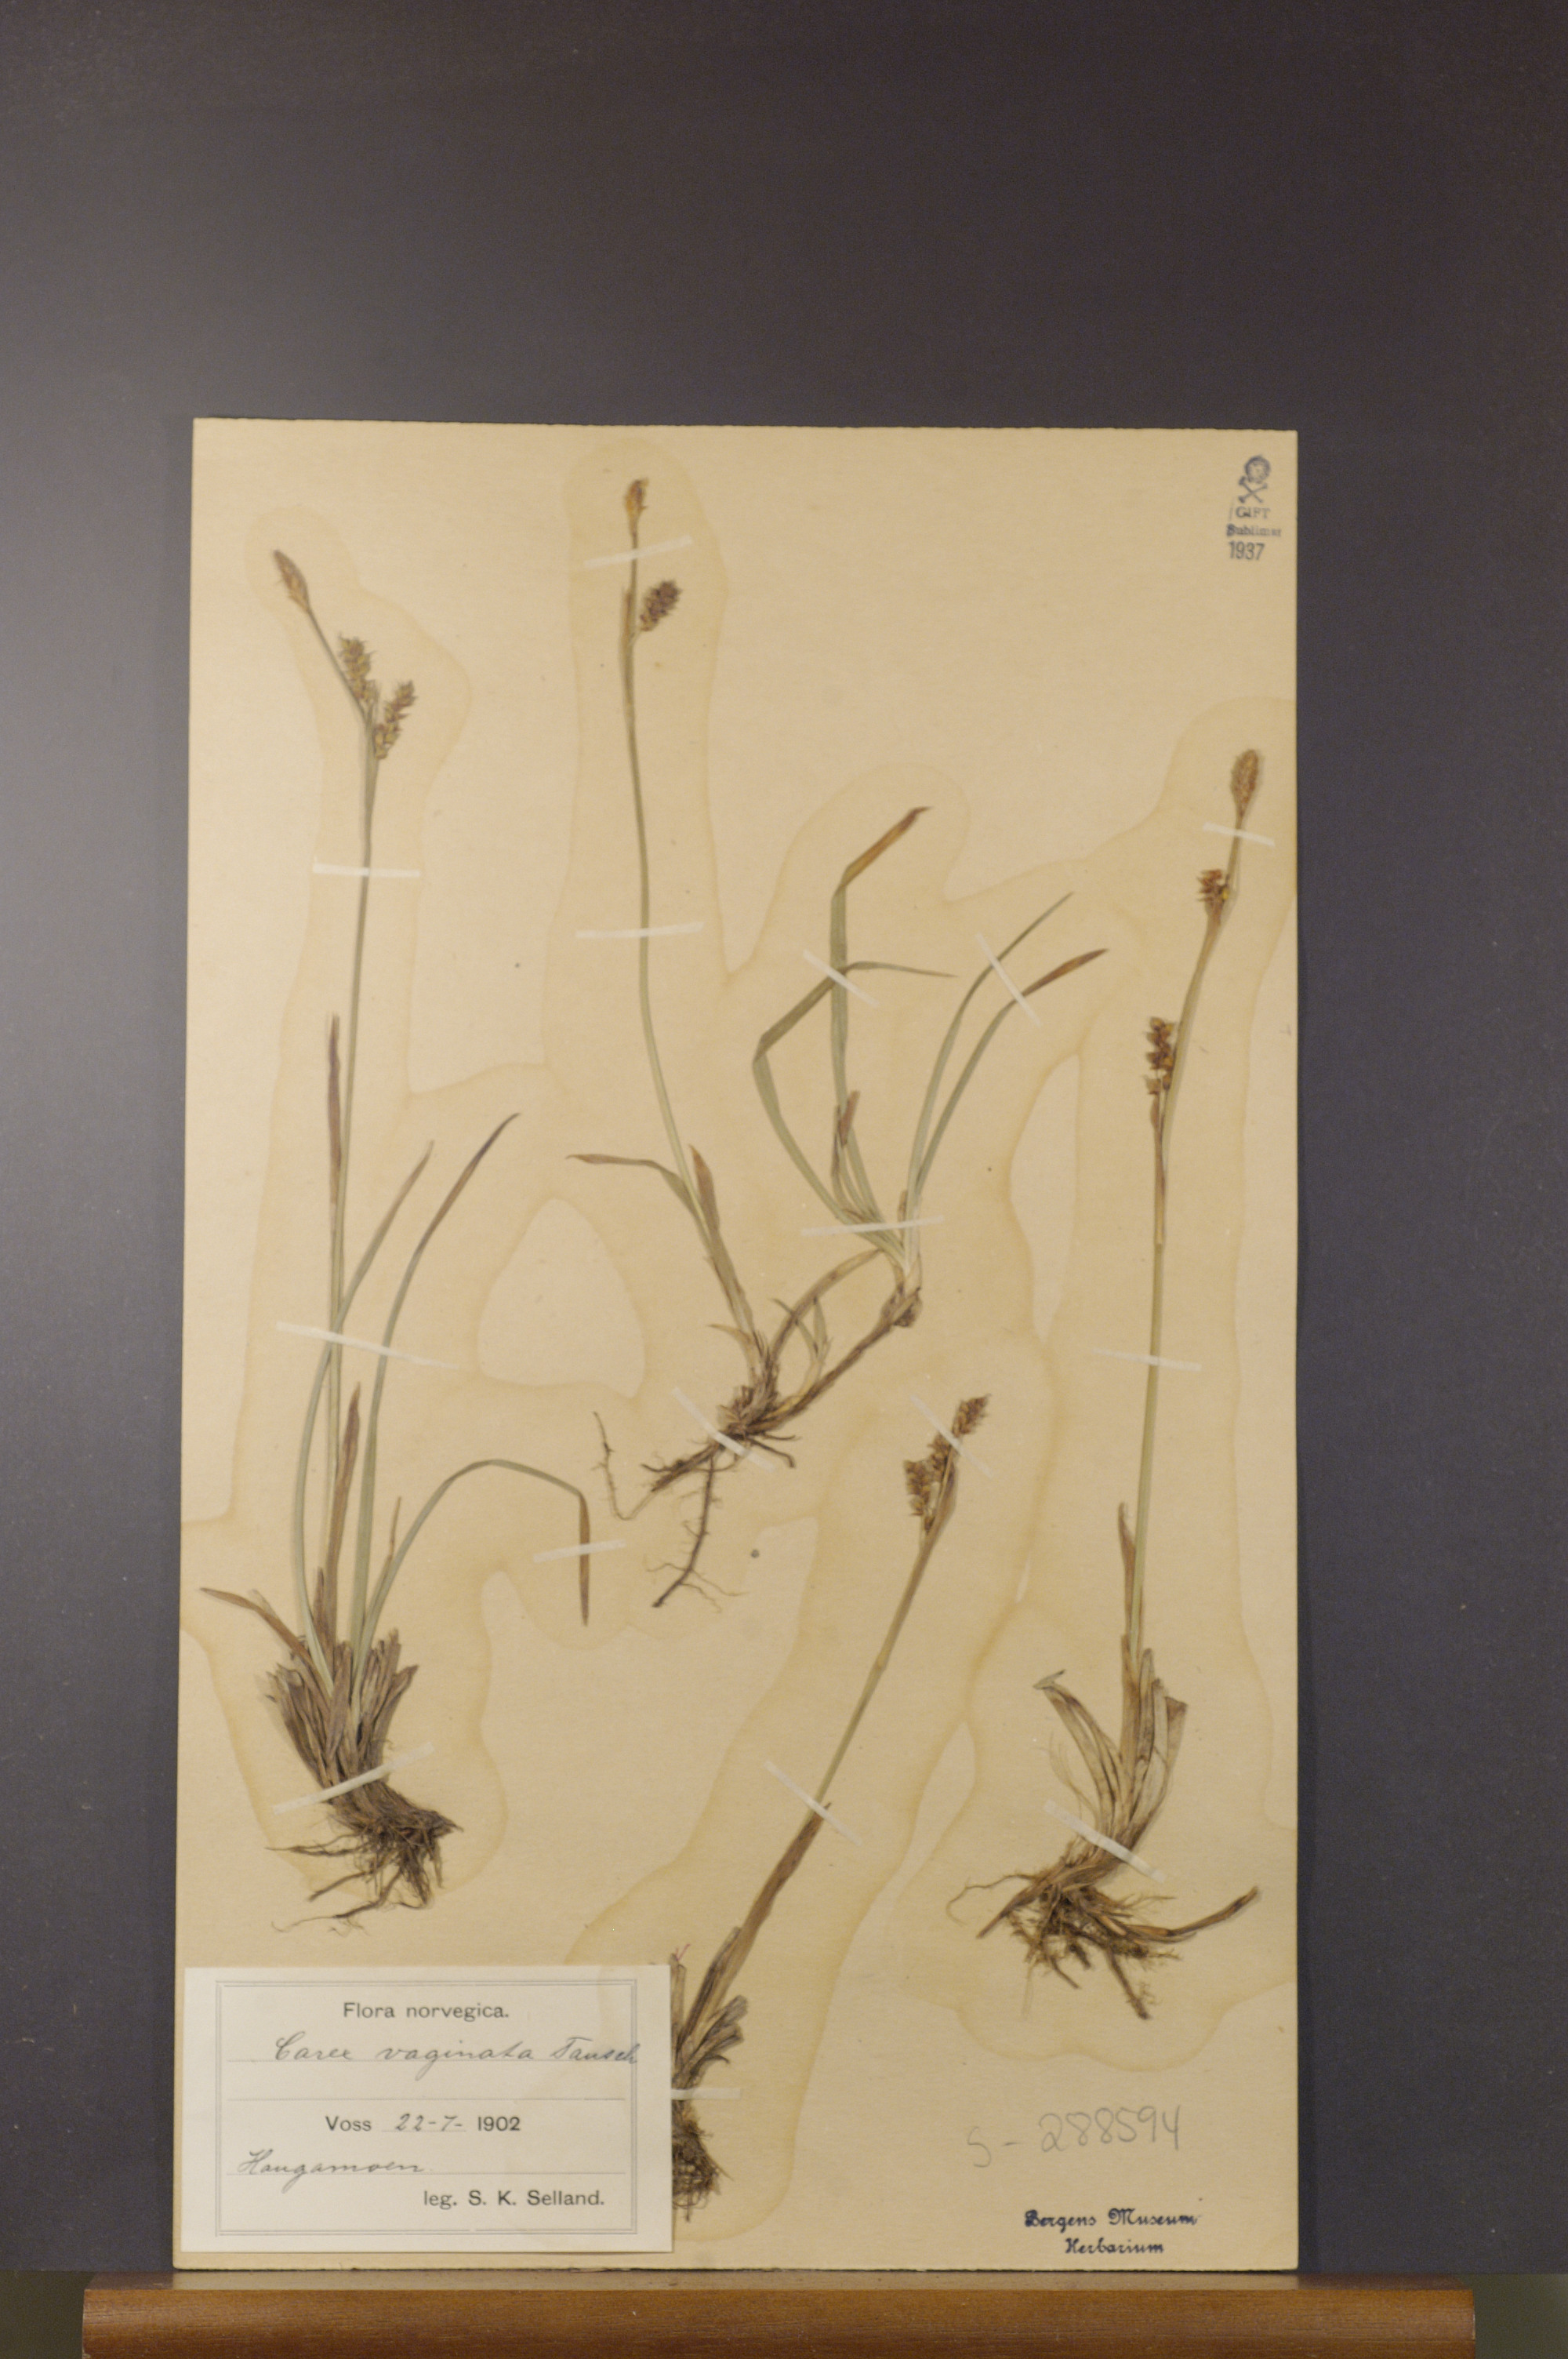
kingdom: Plantae
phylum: Tracheophyta
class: Liliopsida
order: Poales
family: Cyperaceae
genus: Carex
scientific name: Carex vaginata
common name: Sheathed sedge
